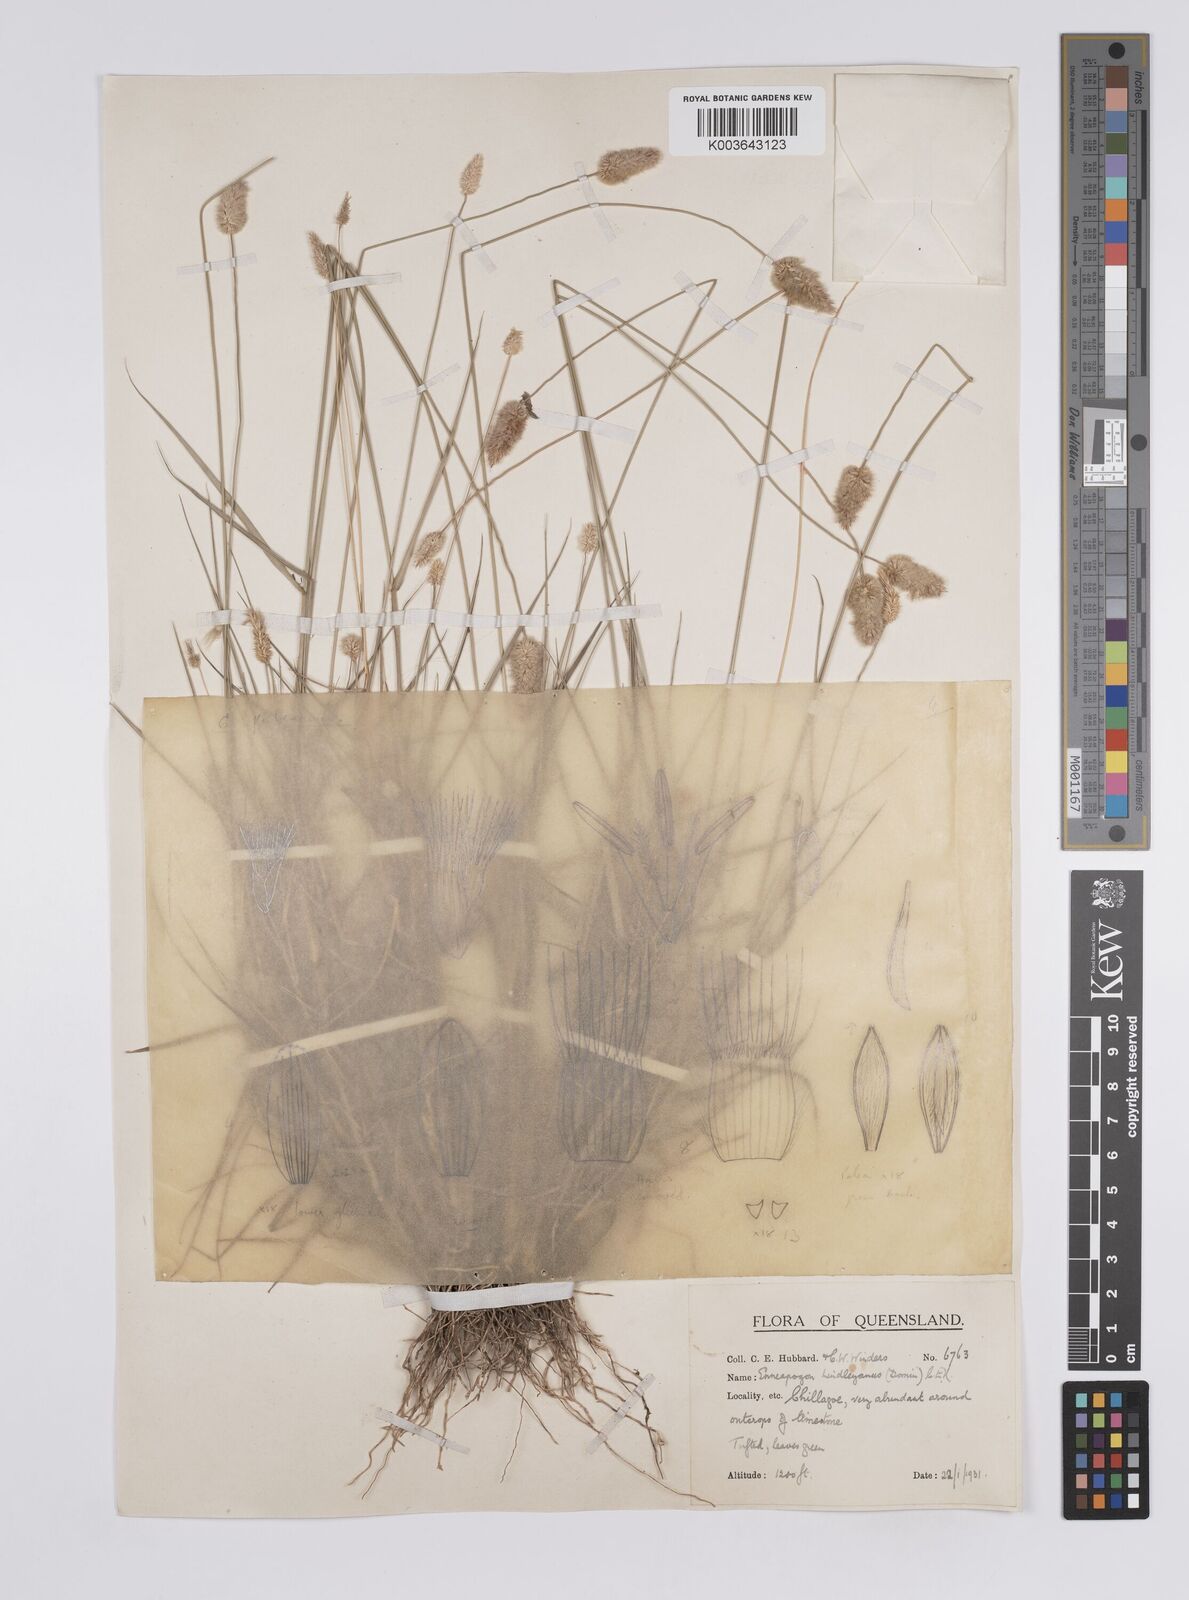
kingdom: Plantae
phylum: Tracheophyta
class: Liliopsida
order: Poales
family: Poaceae
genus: Enneapogon
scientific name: Enneapogon lindleyanus
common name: Conetop nineawn
